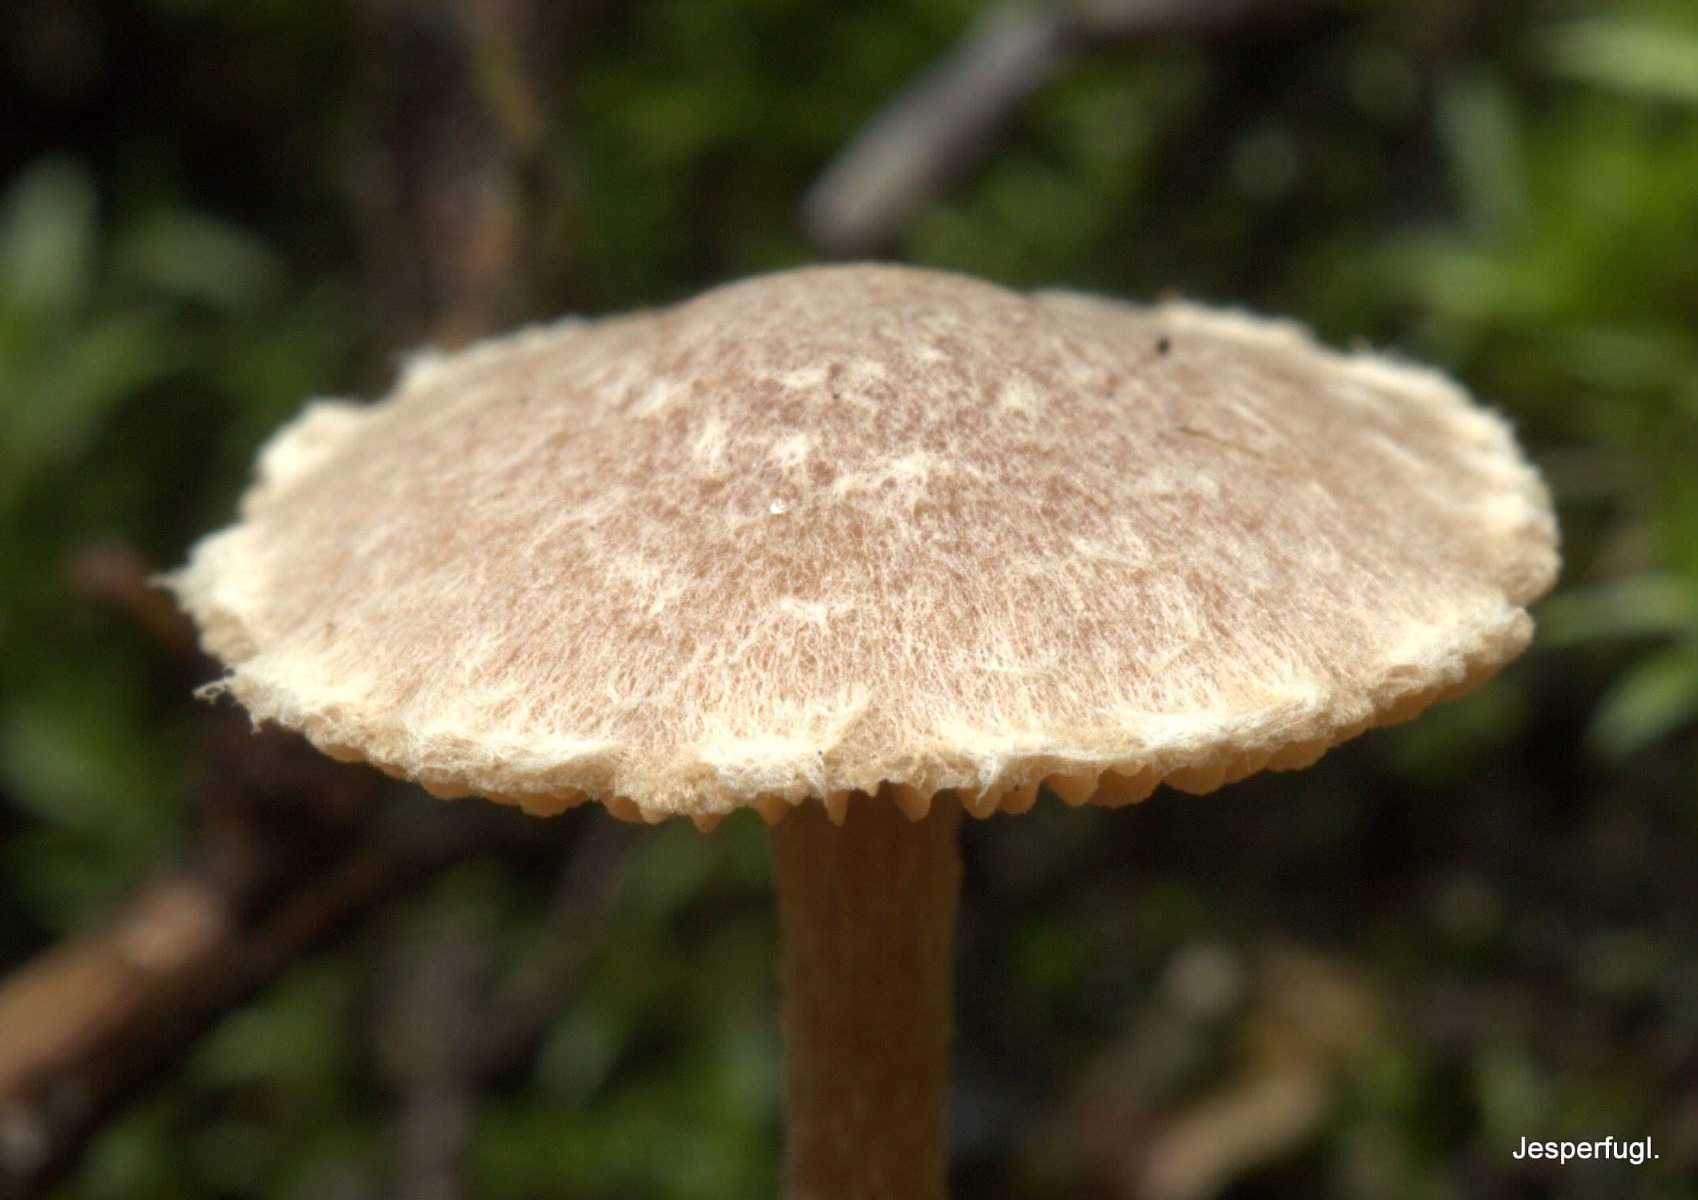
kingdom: Fungi
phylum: Basidiomycota
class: Agaricomycetes
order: Agaricales
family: Tubariaceae
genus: Tubaria
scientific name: Tubaria conspersa
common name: bleg fnughat
